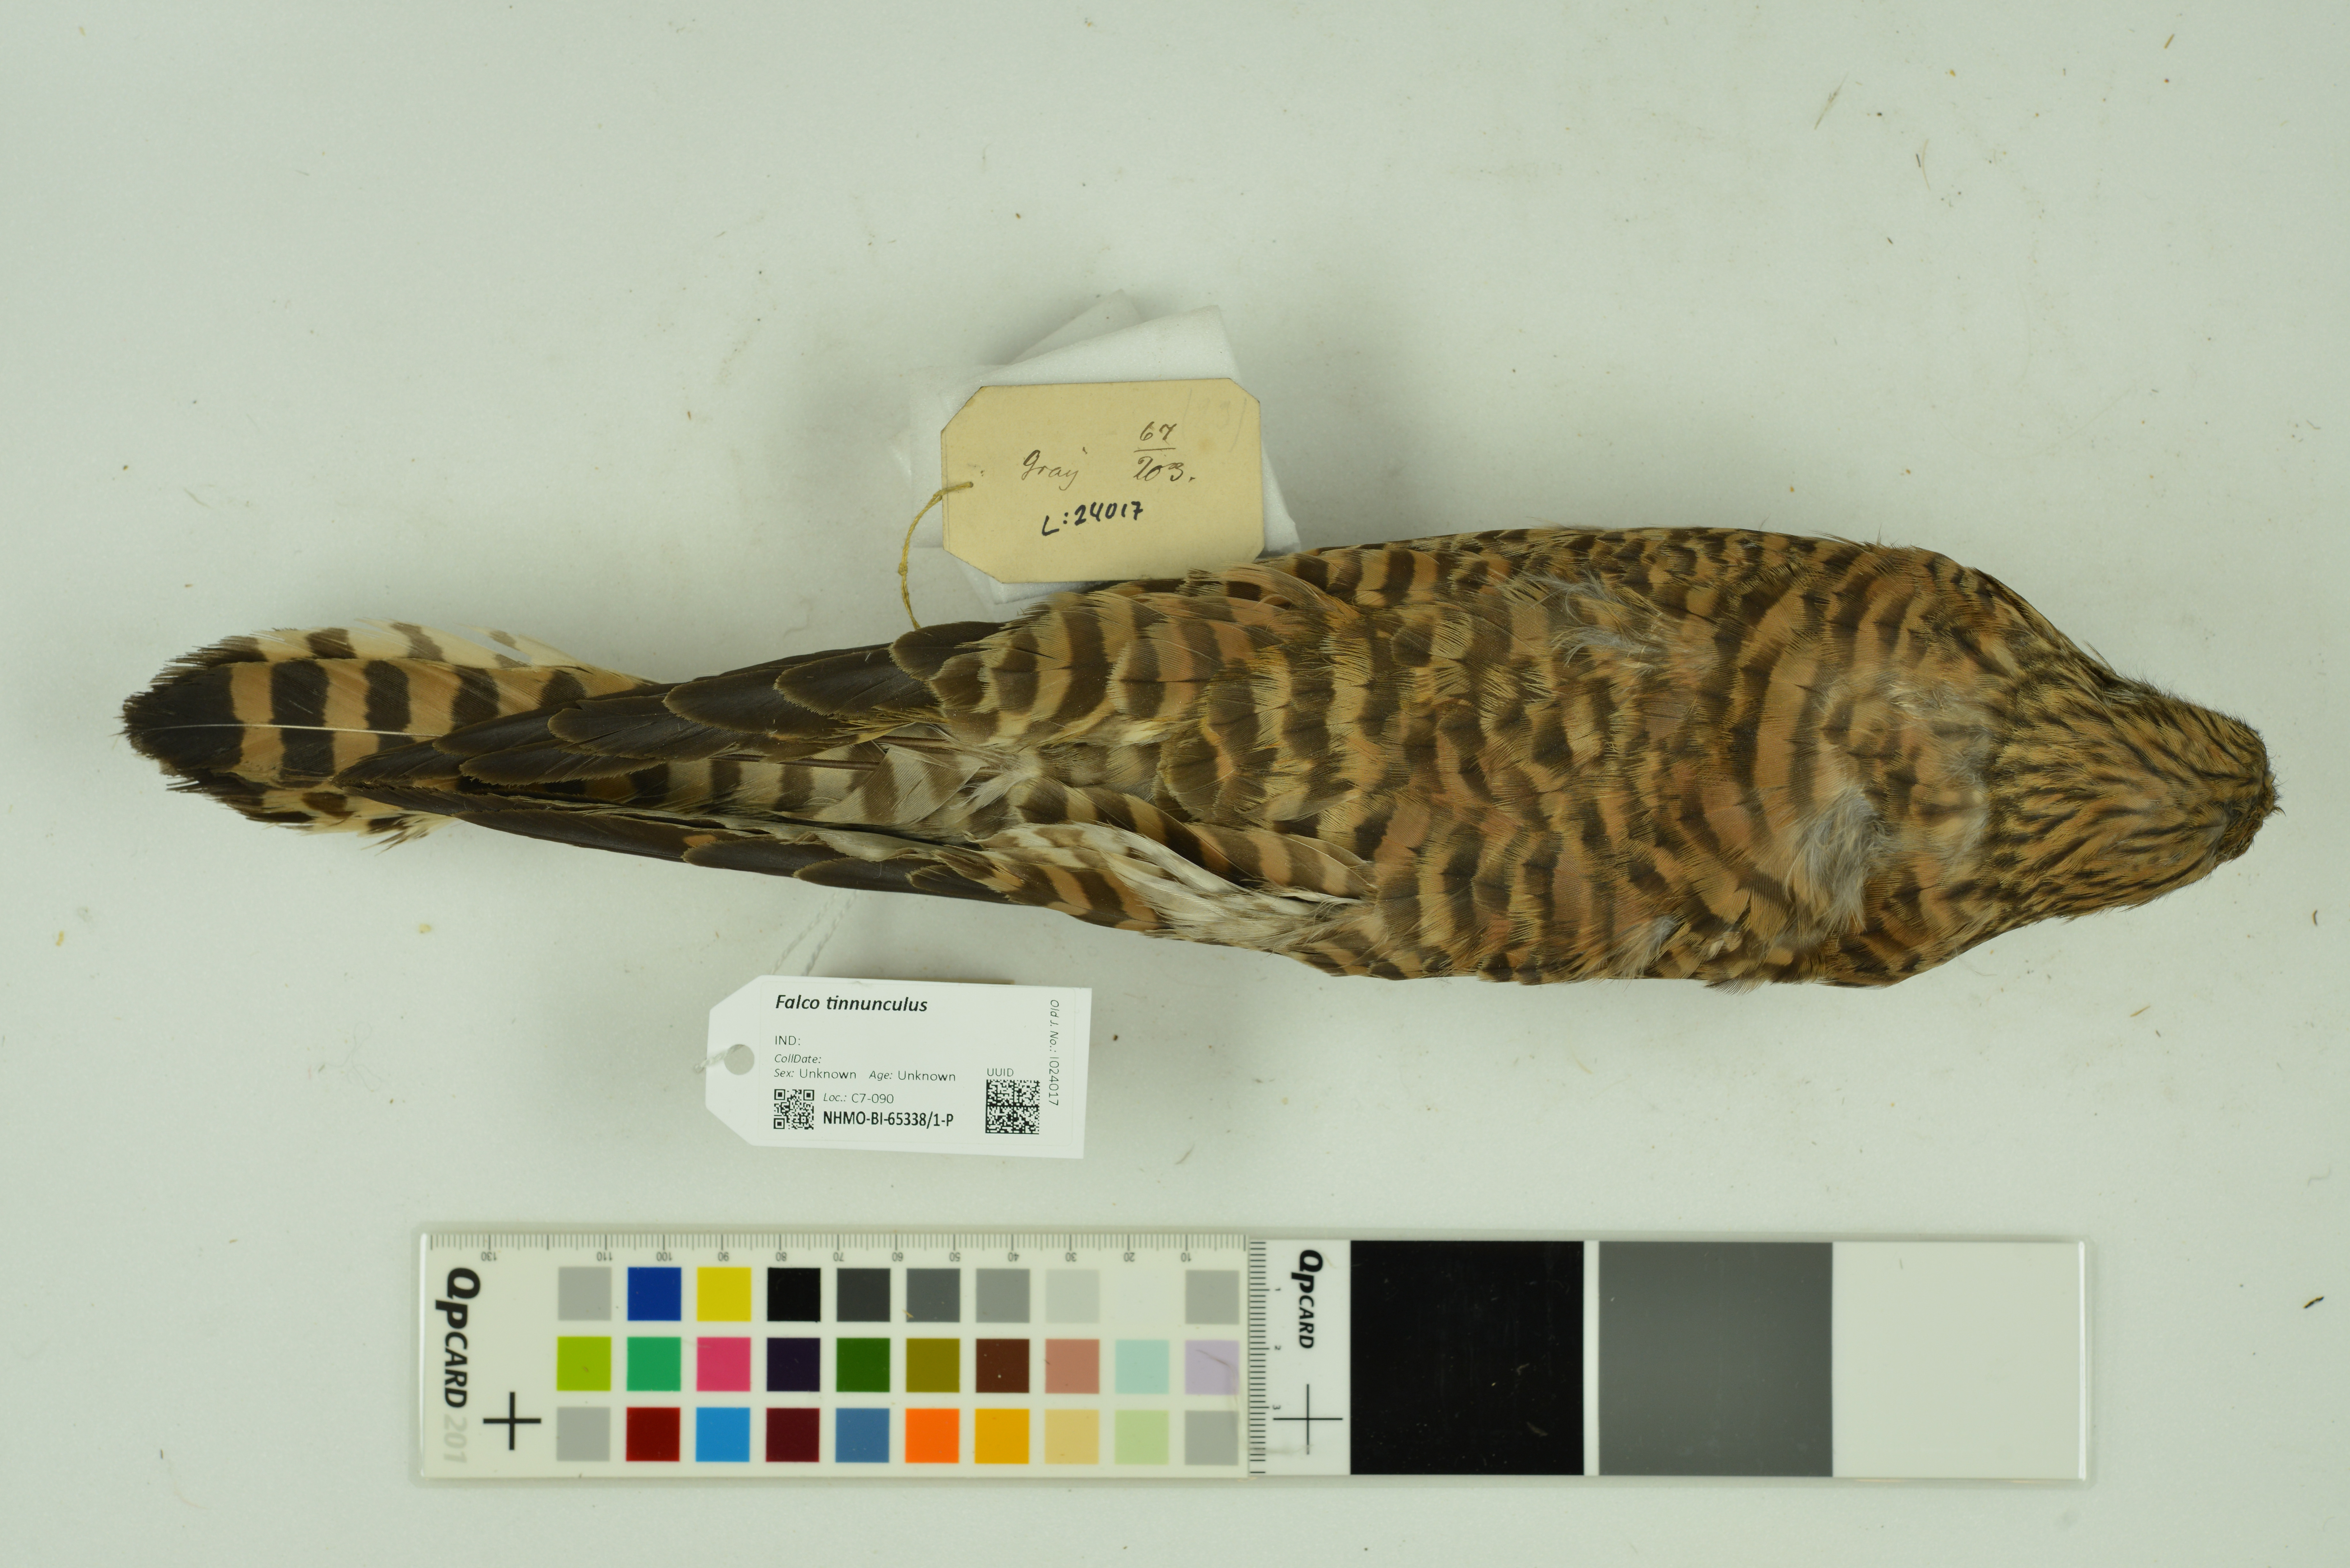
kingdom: Animalia
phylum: Chordata
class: Aves
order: Falconiformes
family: Falconidae
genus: Falco
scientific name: Falco tinnunculus
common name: Common kestrel
